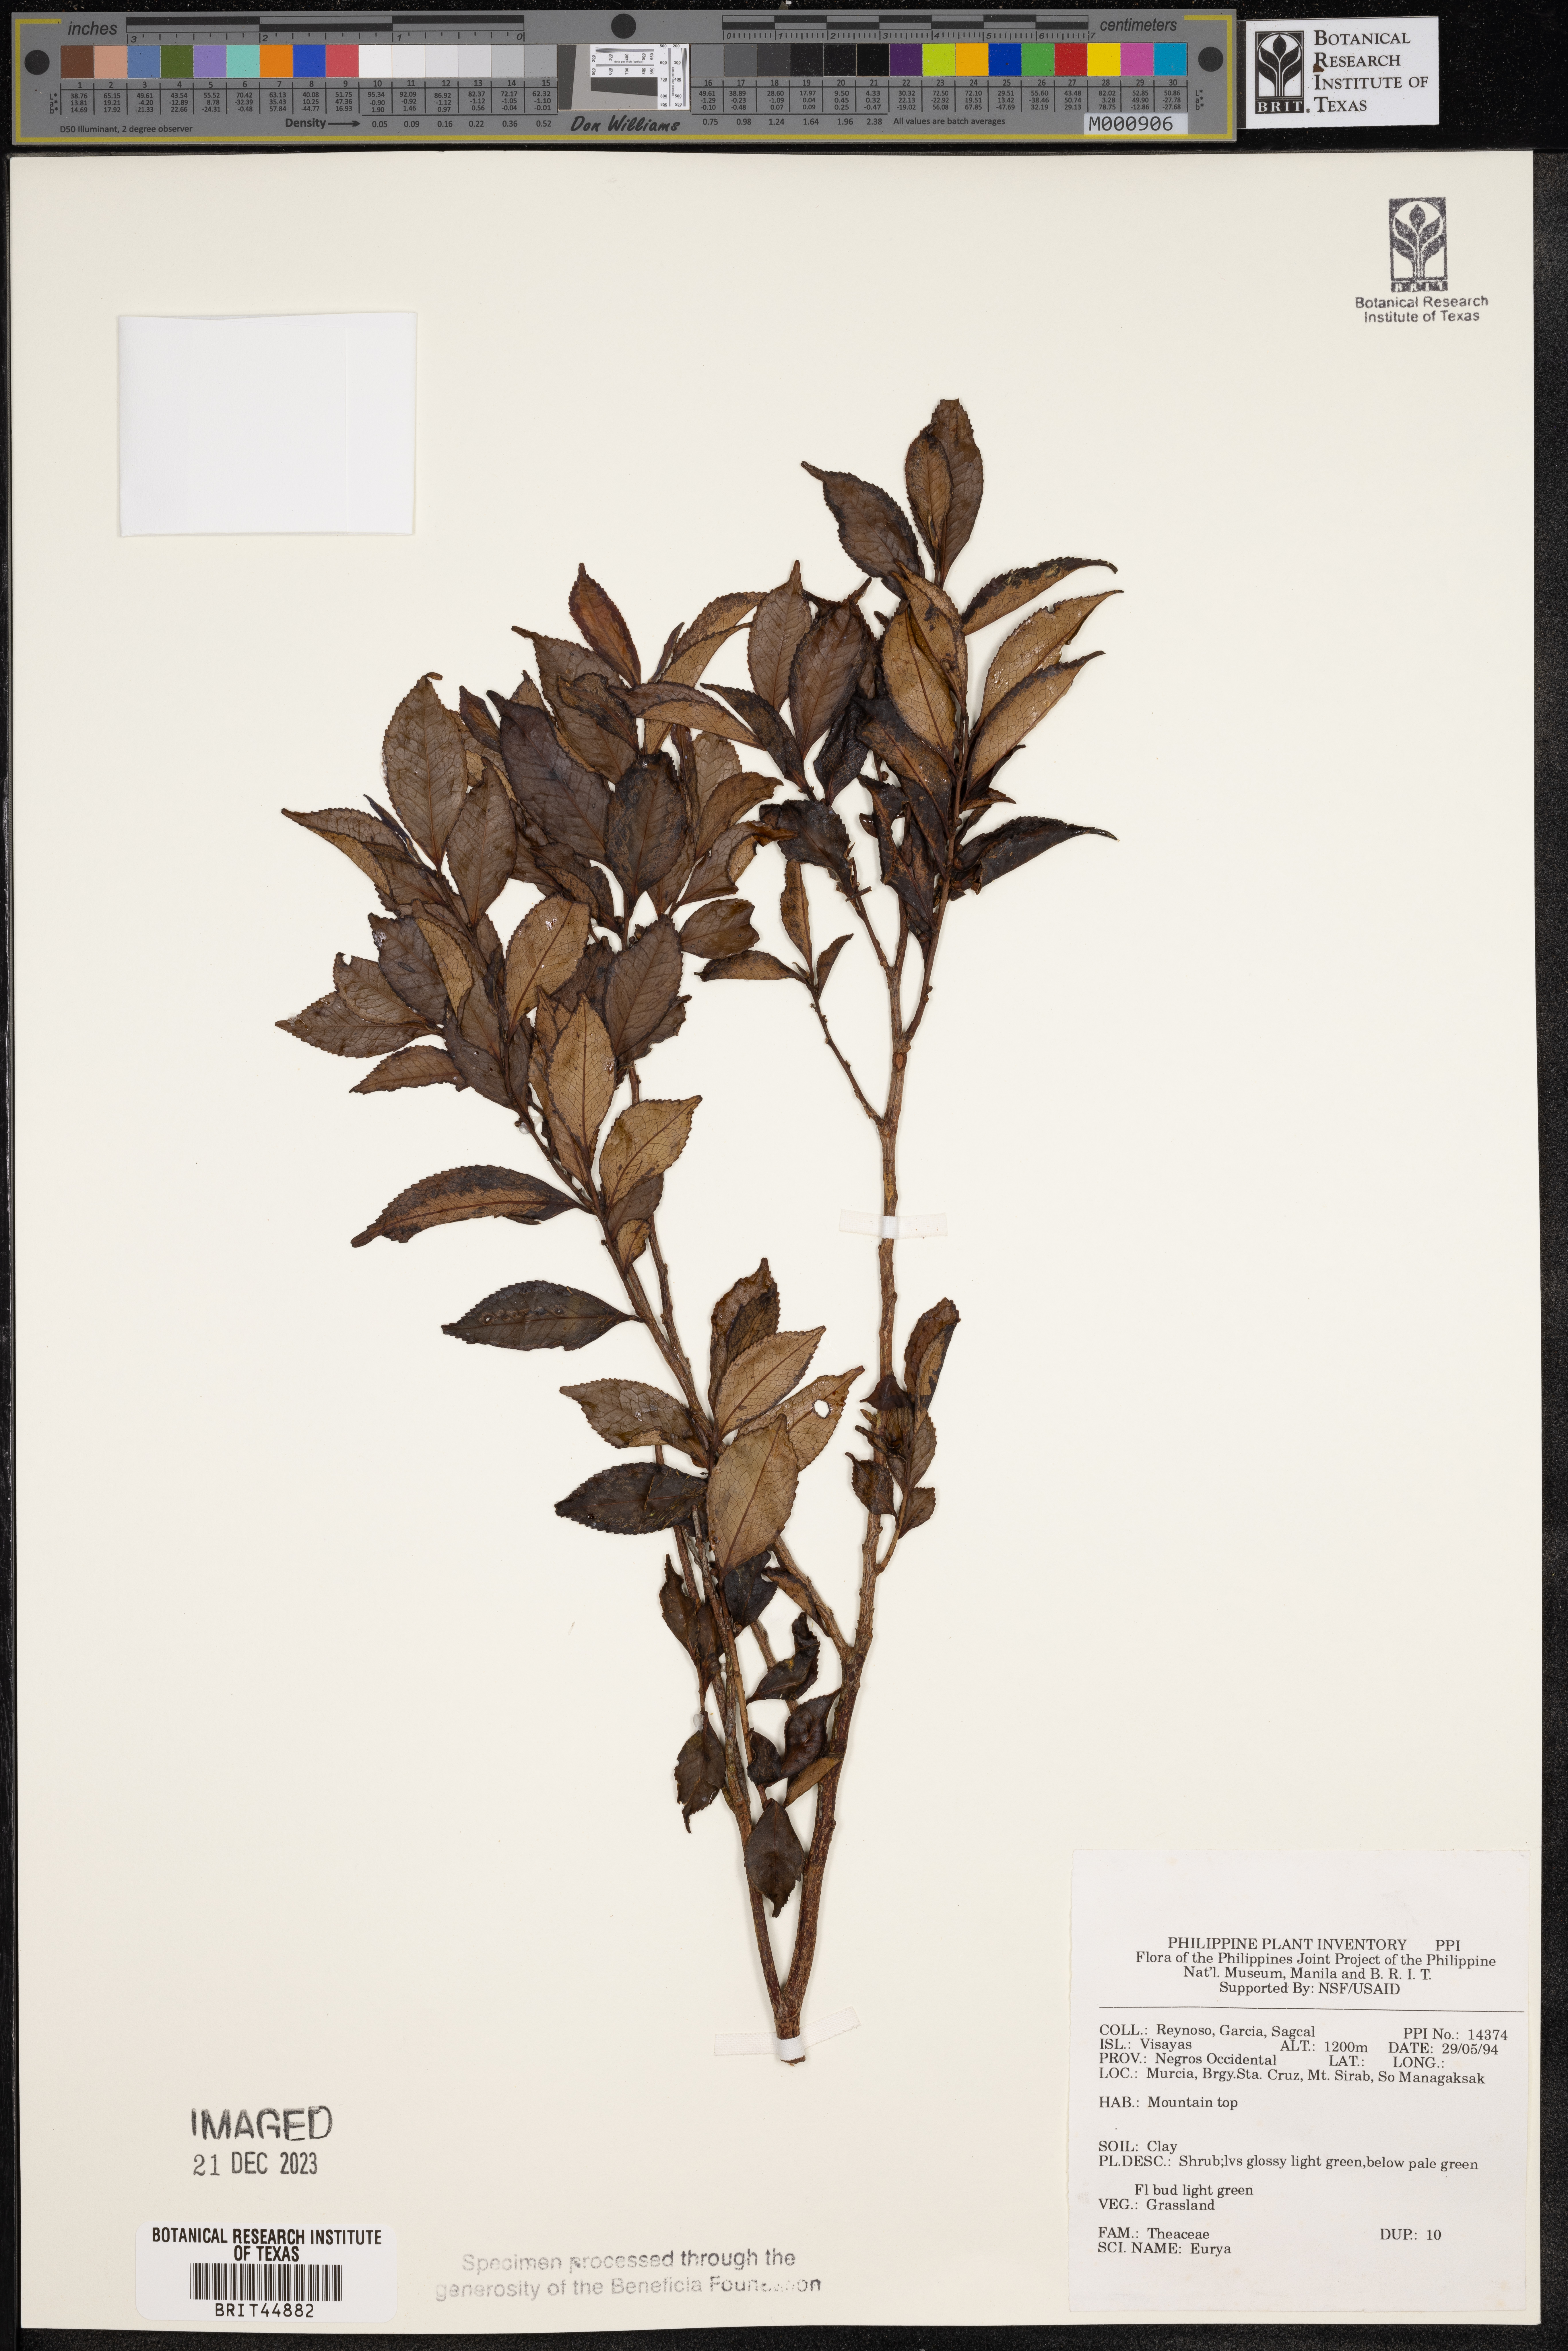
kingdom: Plantae
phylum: Tracheophyta
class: Magnoliopsida
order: Ericales
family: Pentaphylacaceae
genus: Eurya
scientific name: Eurya
